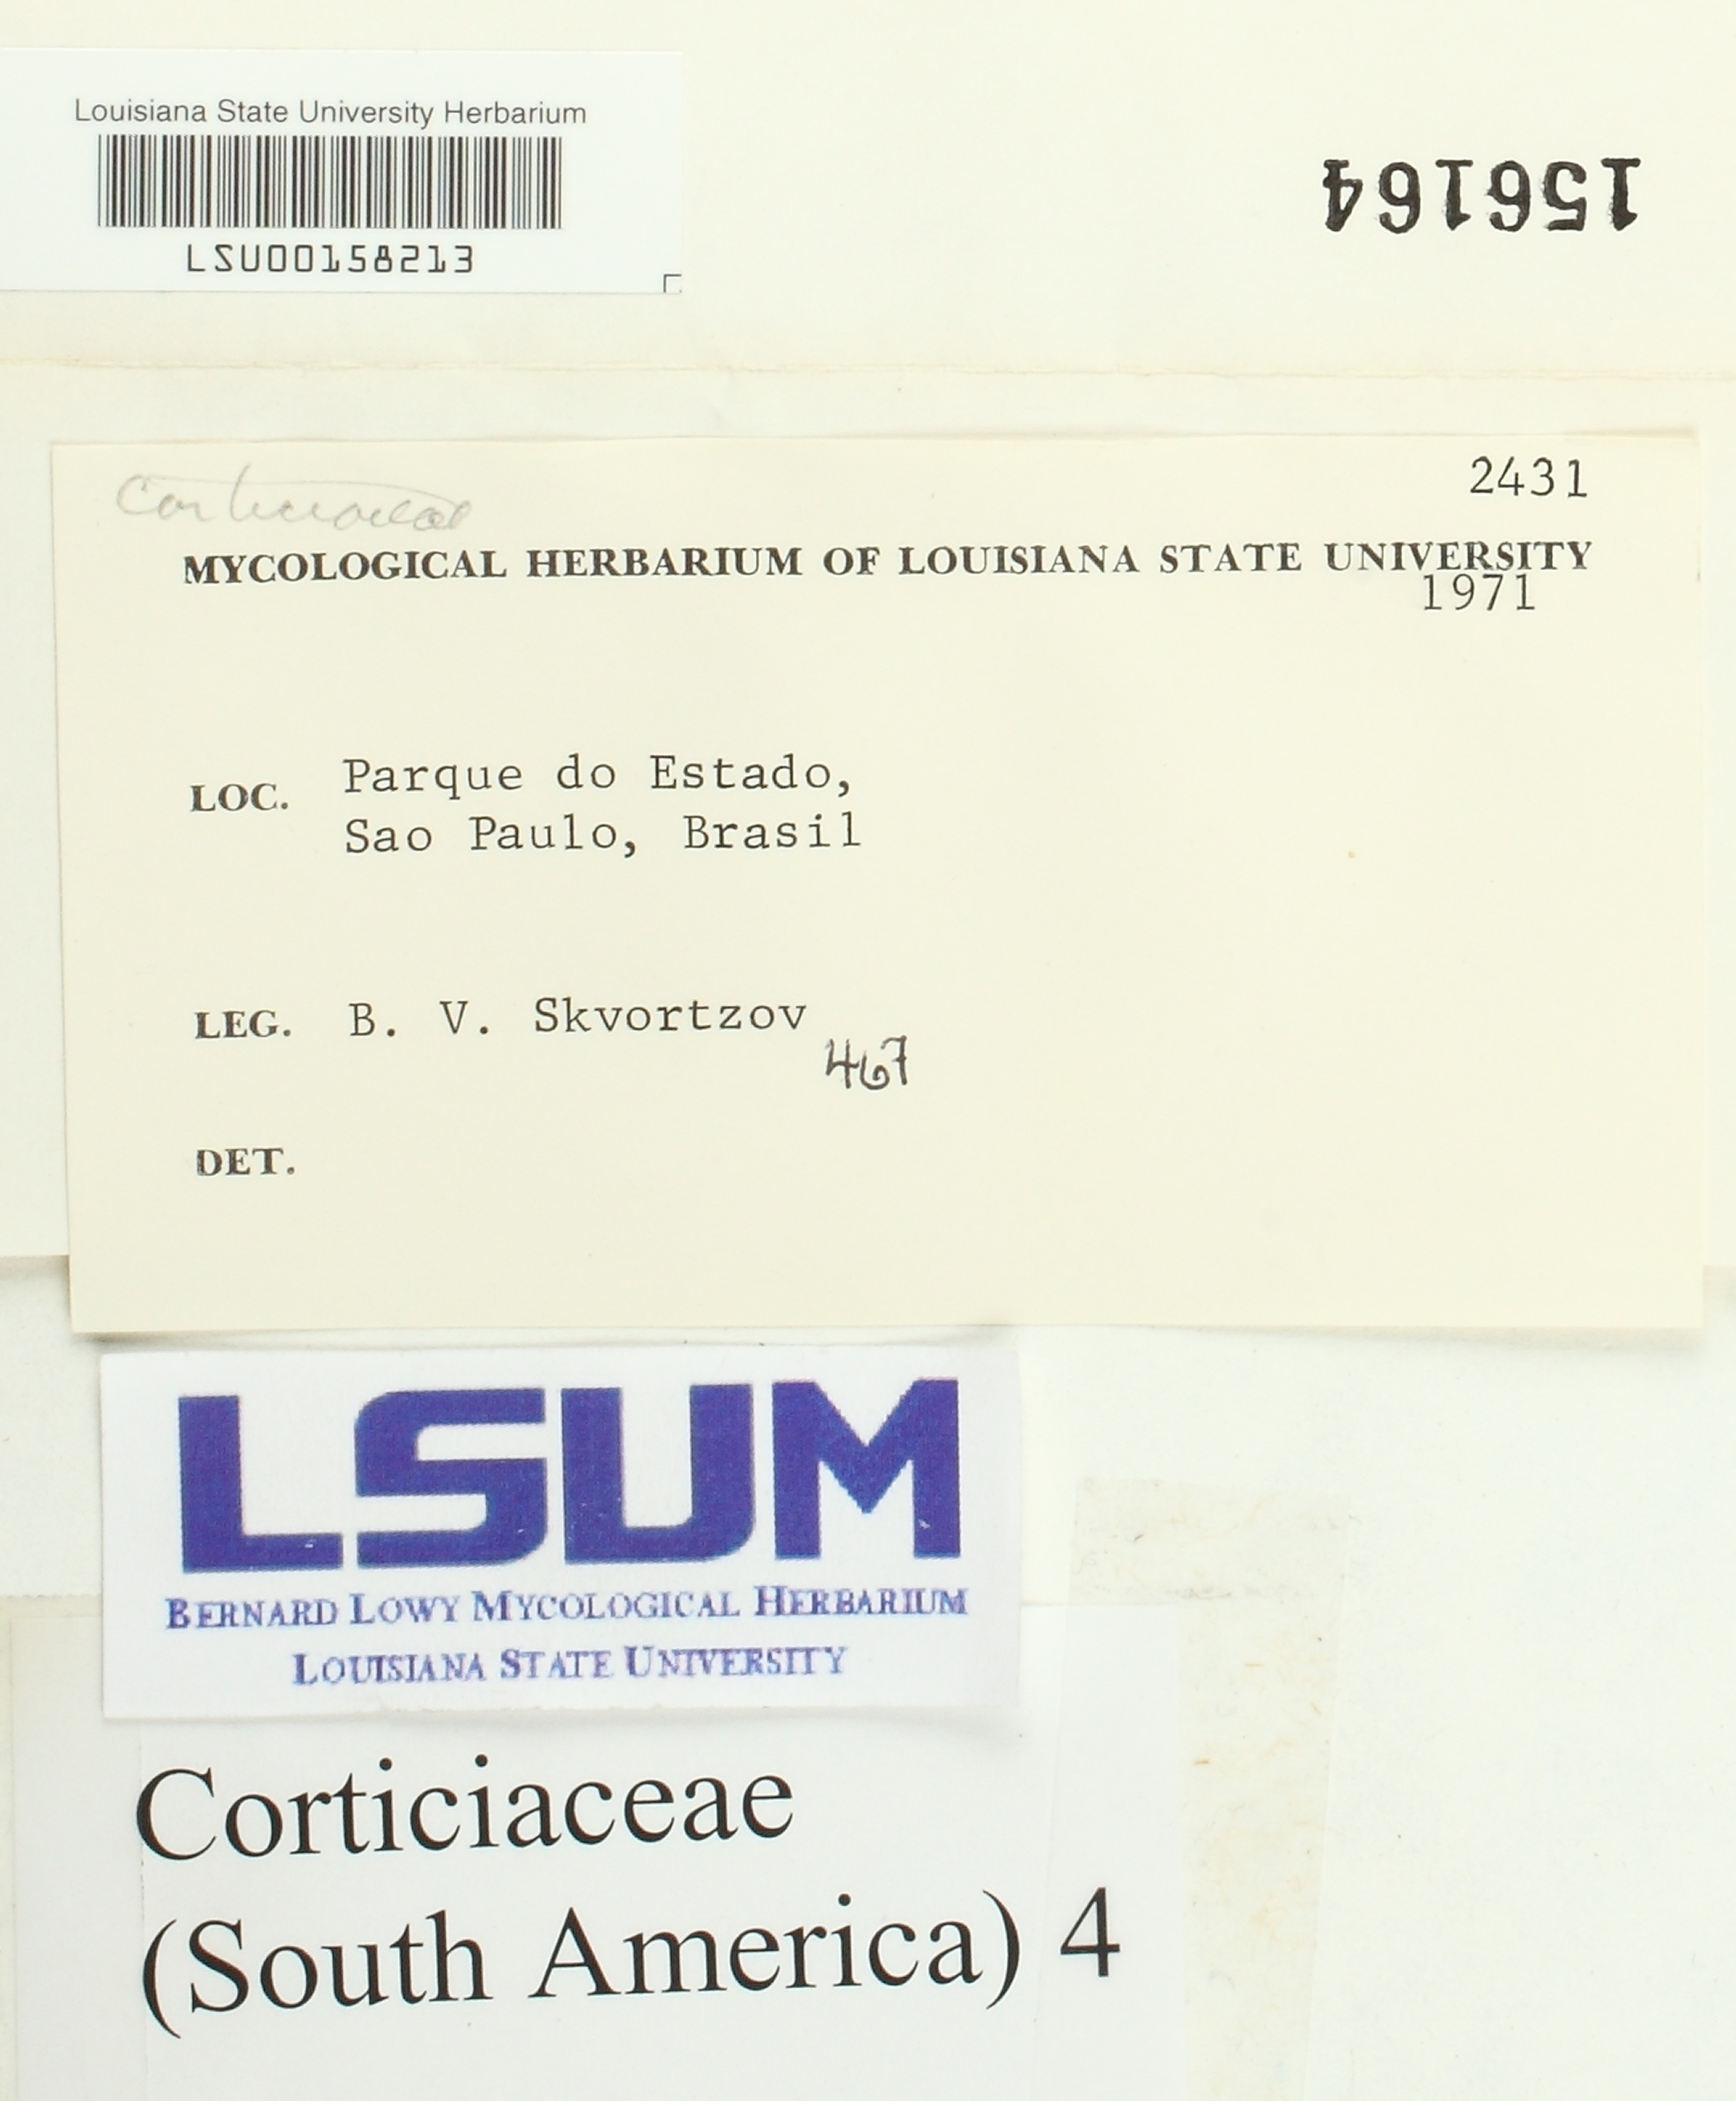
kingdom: Fungi
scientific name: Fungi
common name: Fungi
